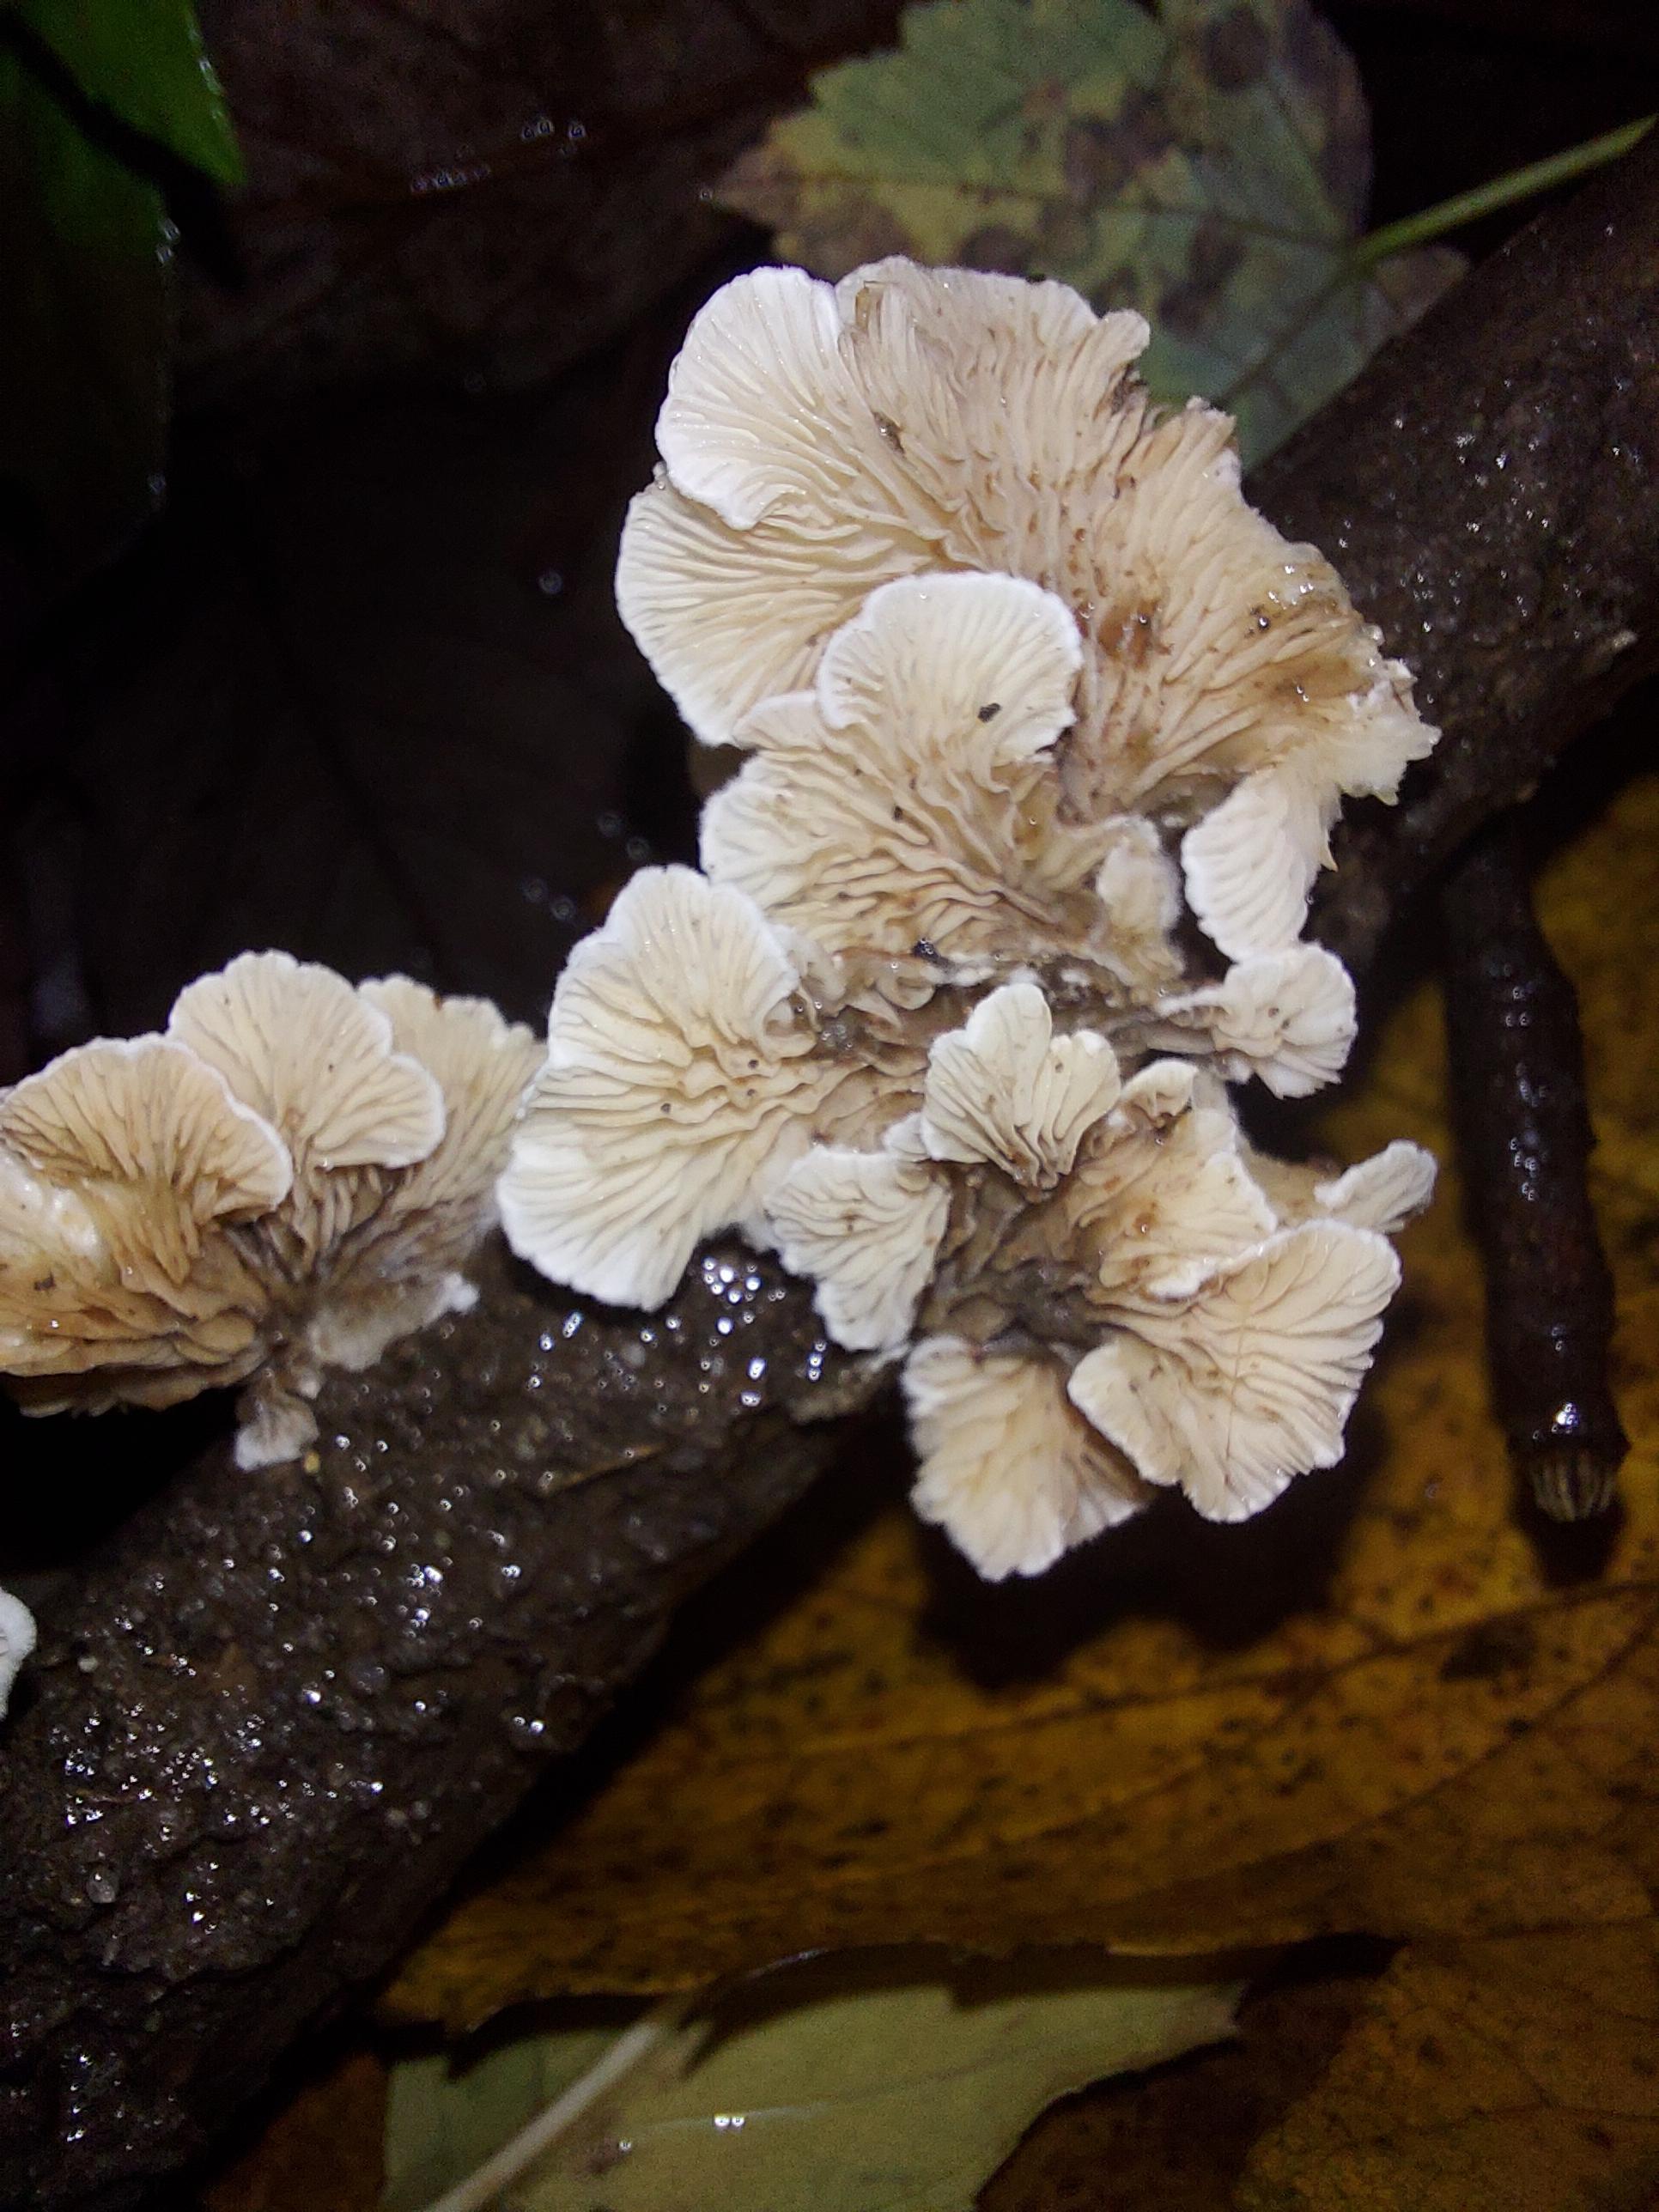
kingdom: Fungi
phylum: Basidiomycota
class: Agaricomycetes
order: Amylocorticiales
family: Amylocorticiaceae
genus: Plicaturopsis
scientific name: Plicaturopsis crispa
